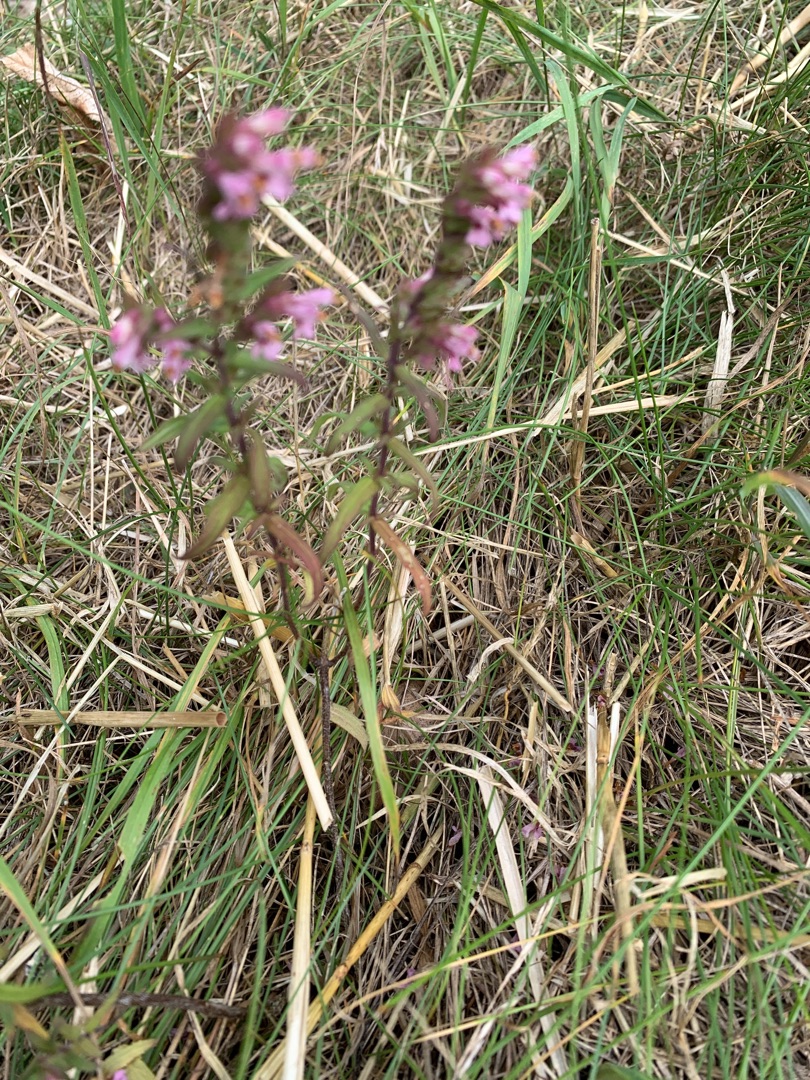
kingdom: Plantae
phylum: Tracheophyta
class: Magnoliopsida
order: Lamiales
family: Orobanchaceae
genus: Odontites
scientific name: Odontites
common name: Rødtopslægten
